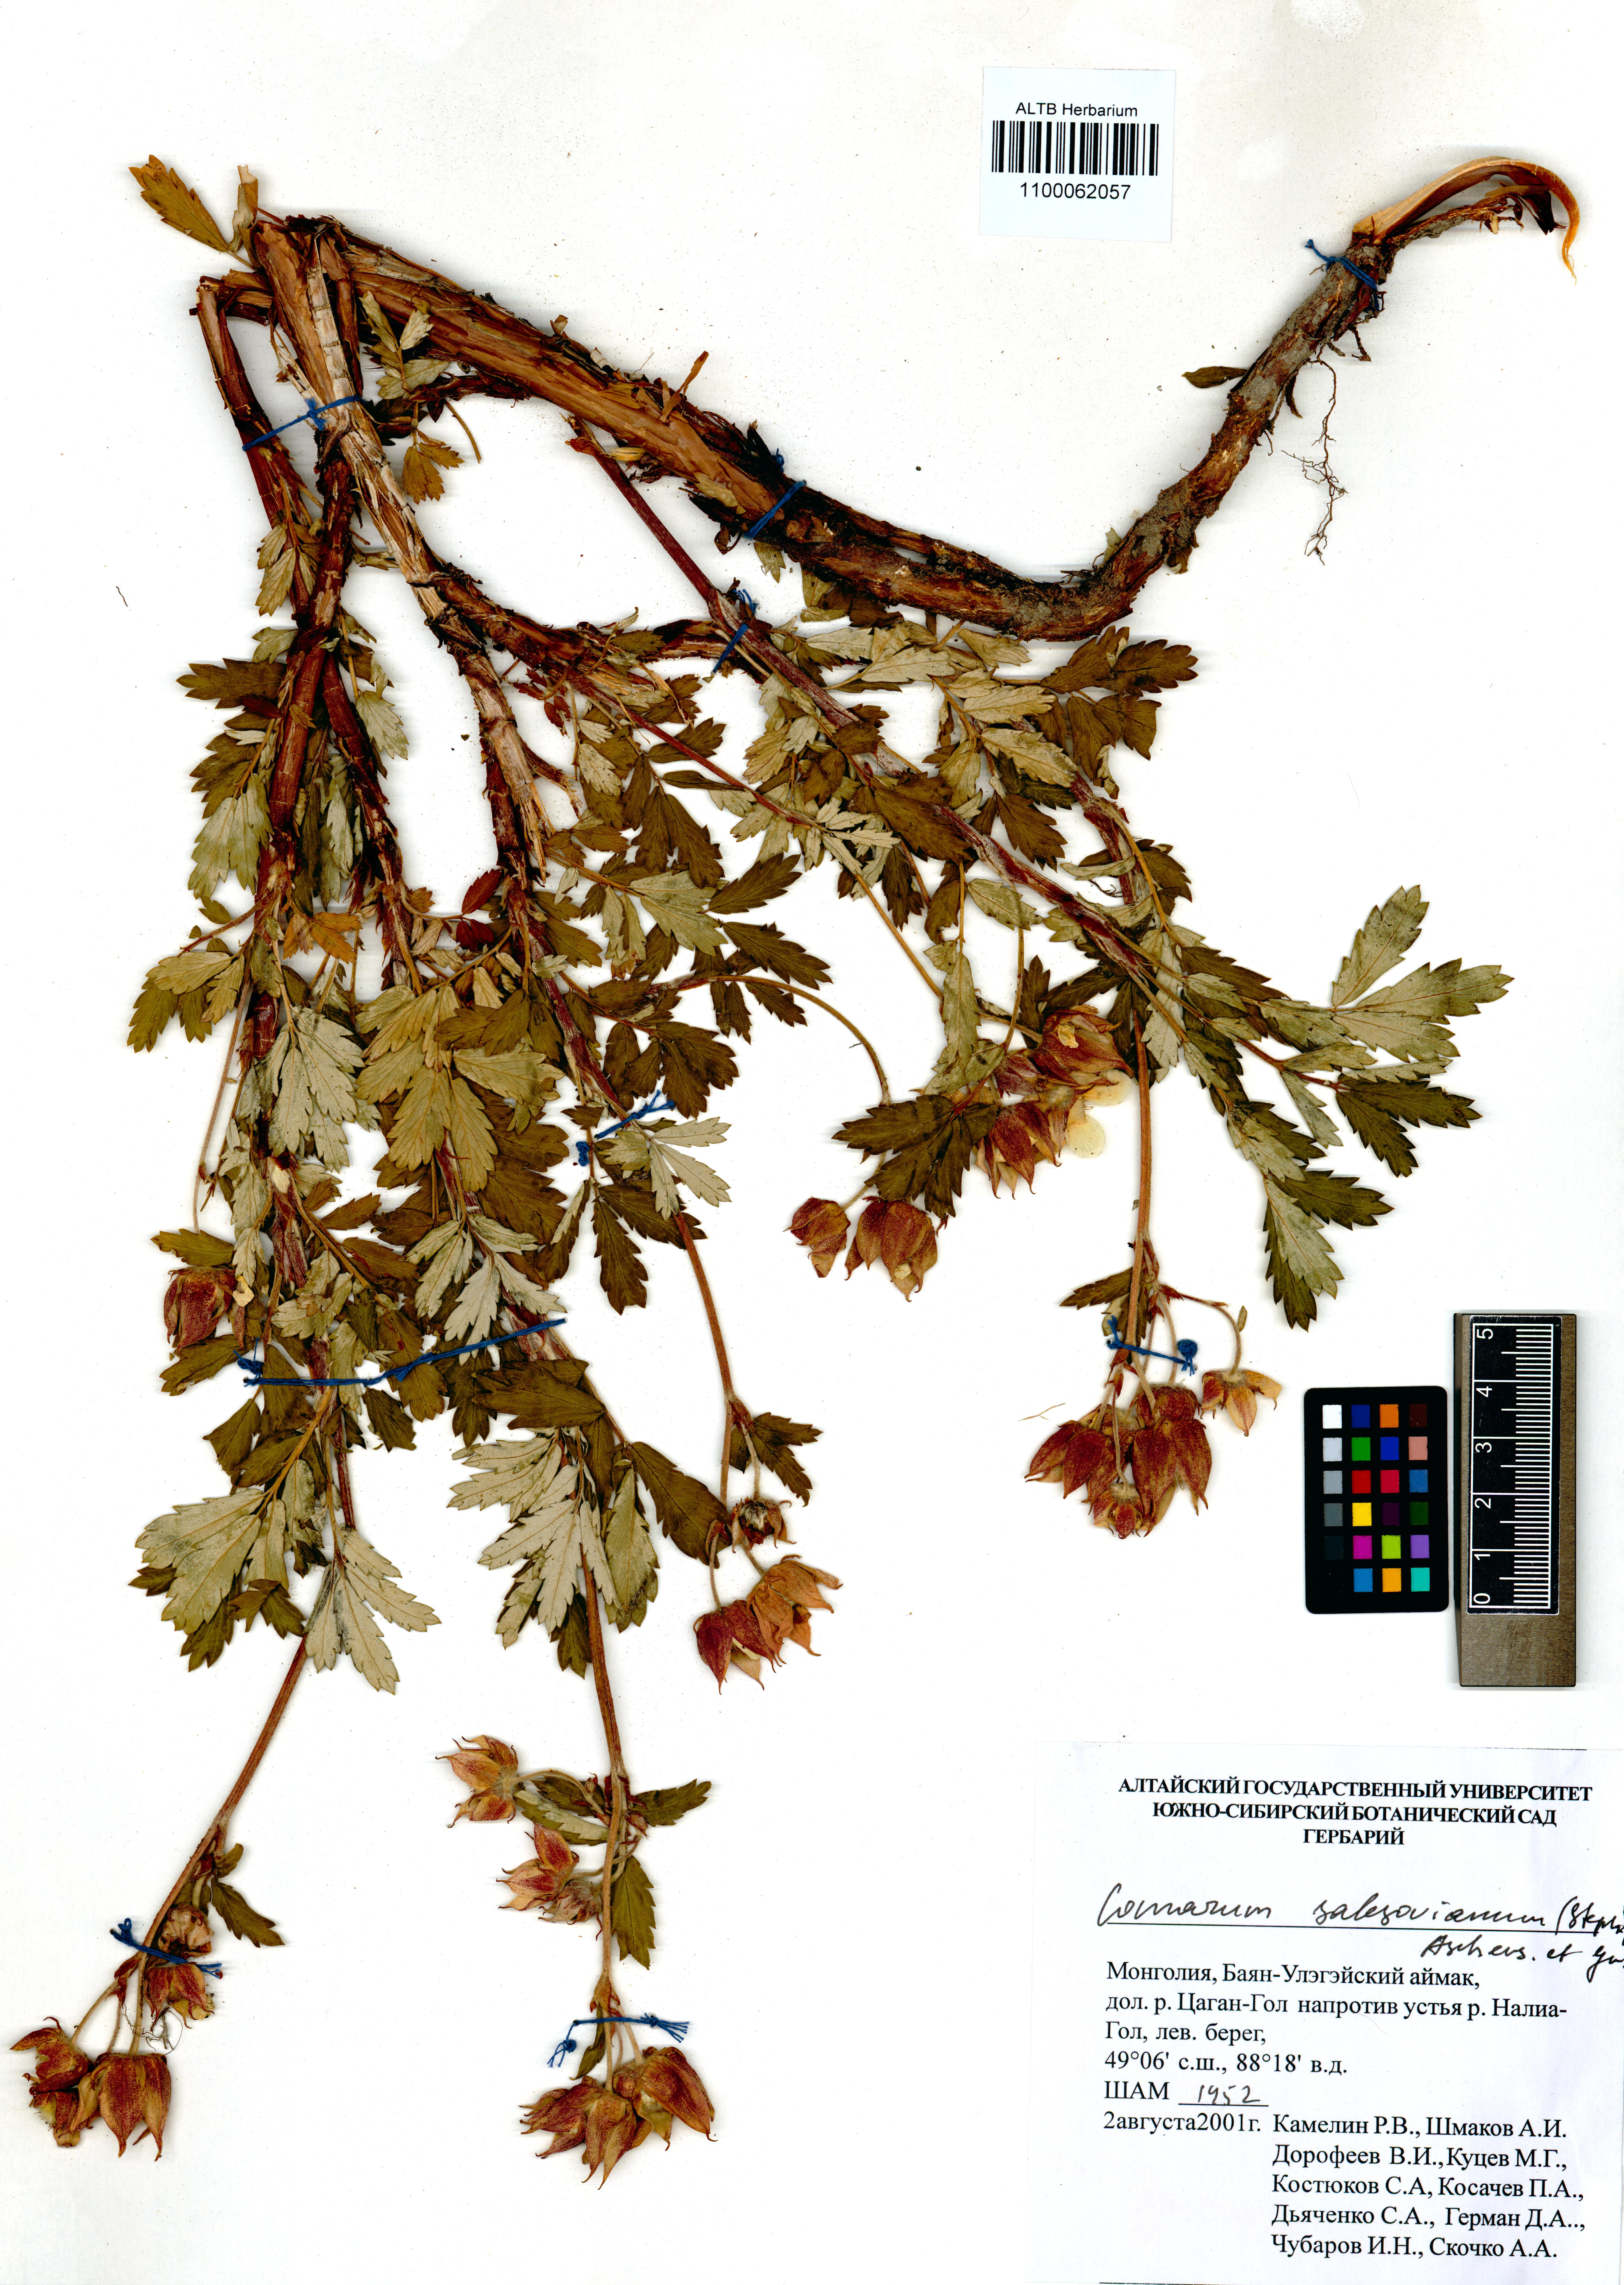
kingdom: Plantae
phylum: Tracheophyta
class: Magnoliopsida
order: Rosales
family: Rosaceae
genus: Farinopsis
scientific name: Farinopsis salesoviana
